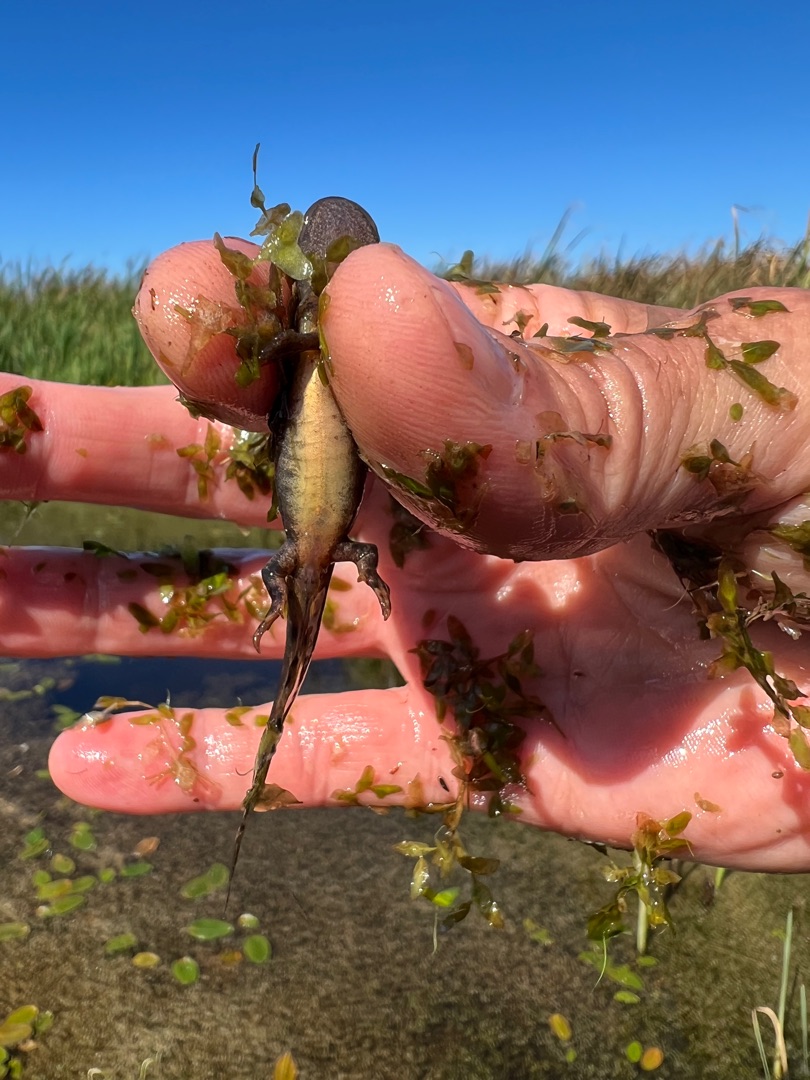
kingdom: Animalia
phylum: Chordata
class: Amphibia
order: Caudata
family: Salamandridae
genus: Triturus
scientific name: Triturus cristatus
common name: Stor vandsalamander
